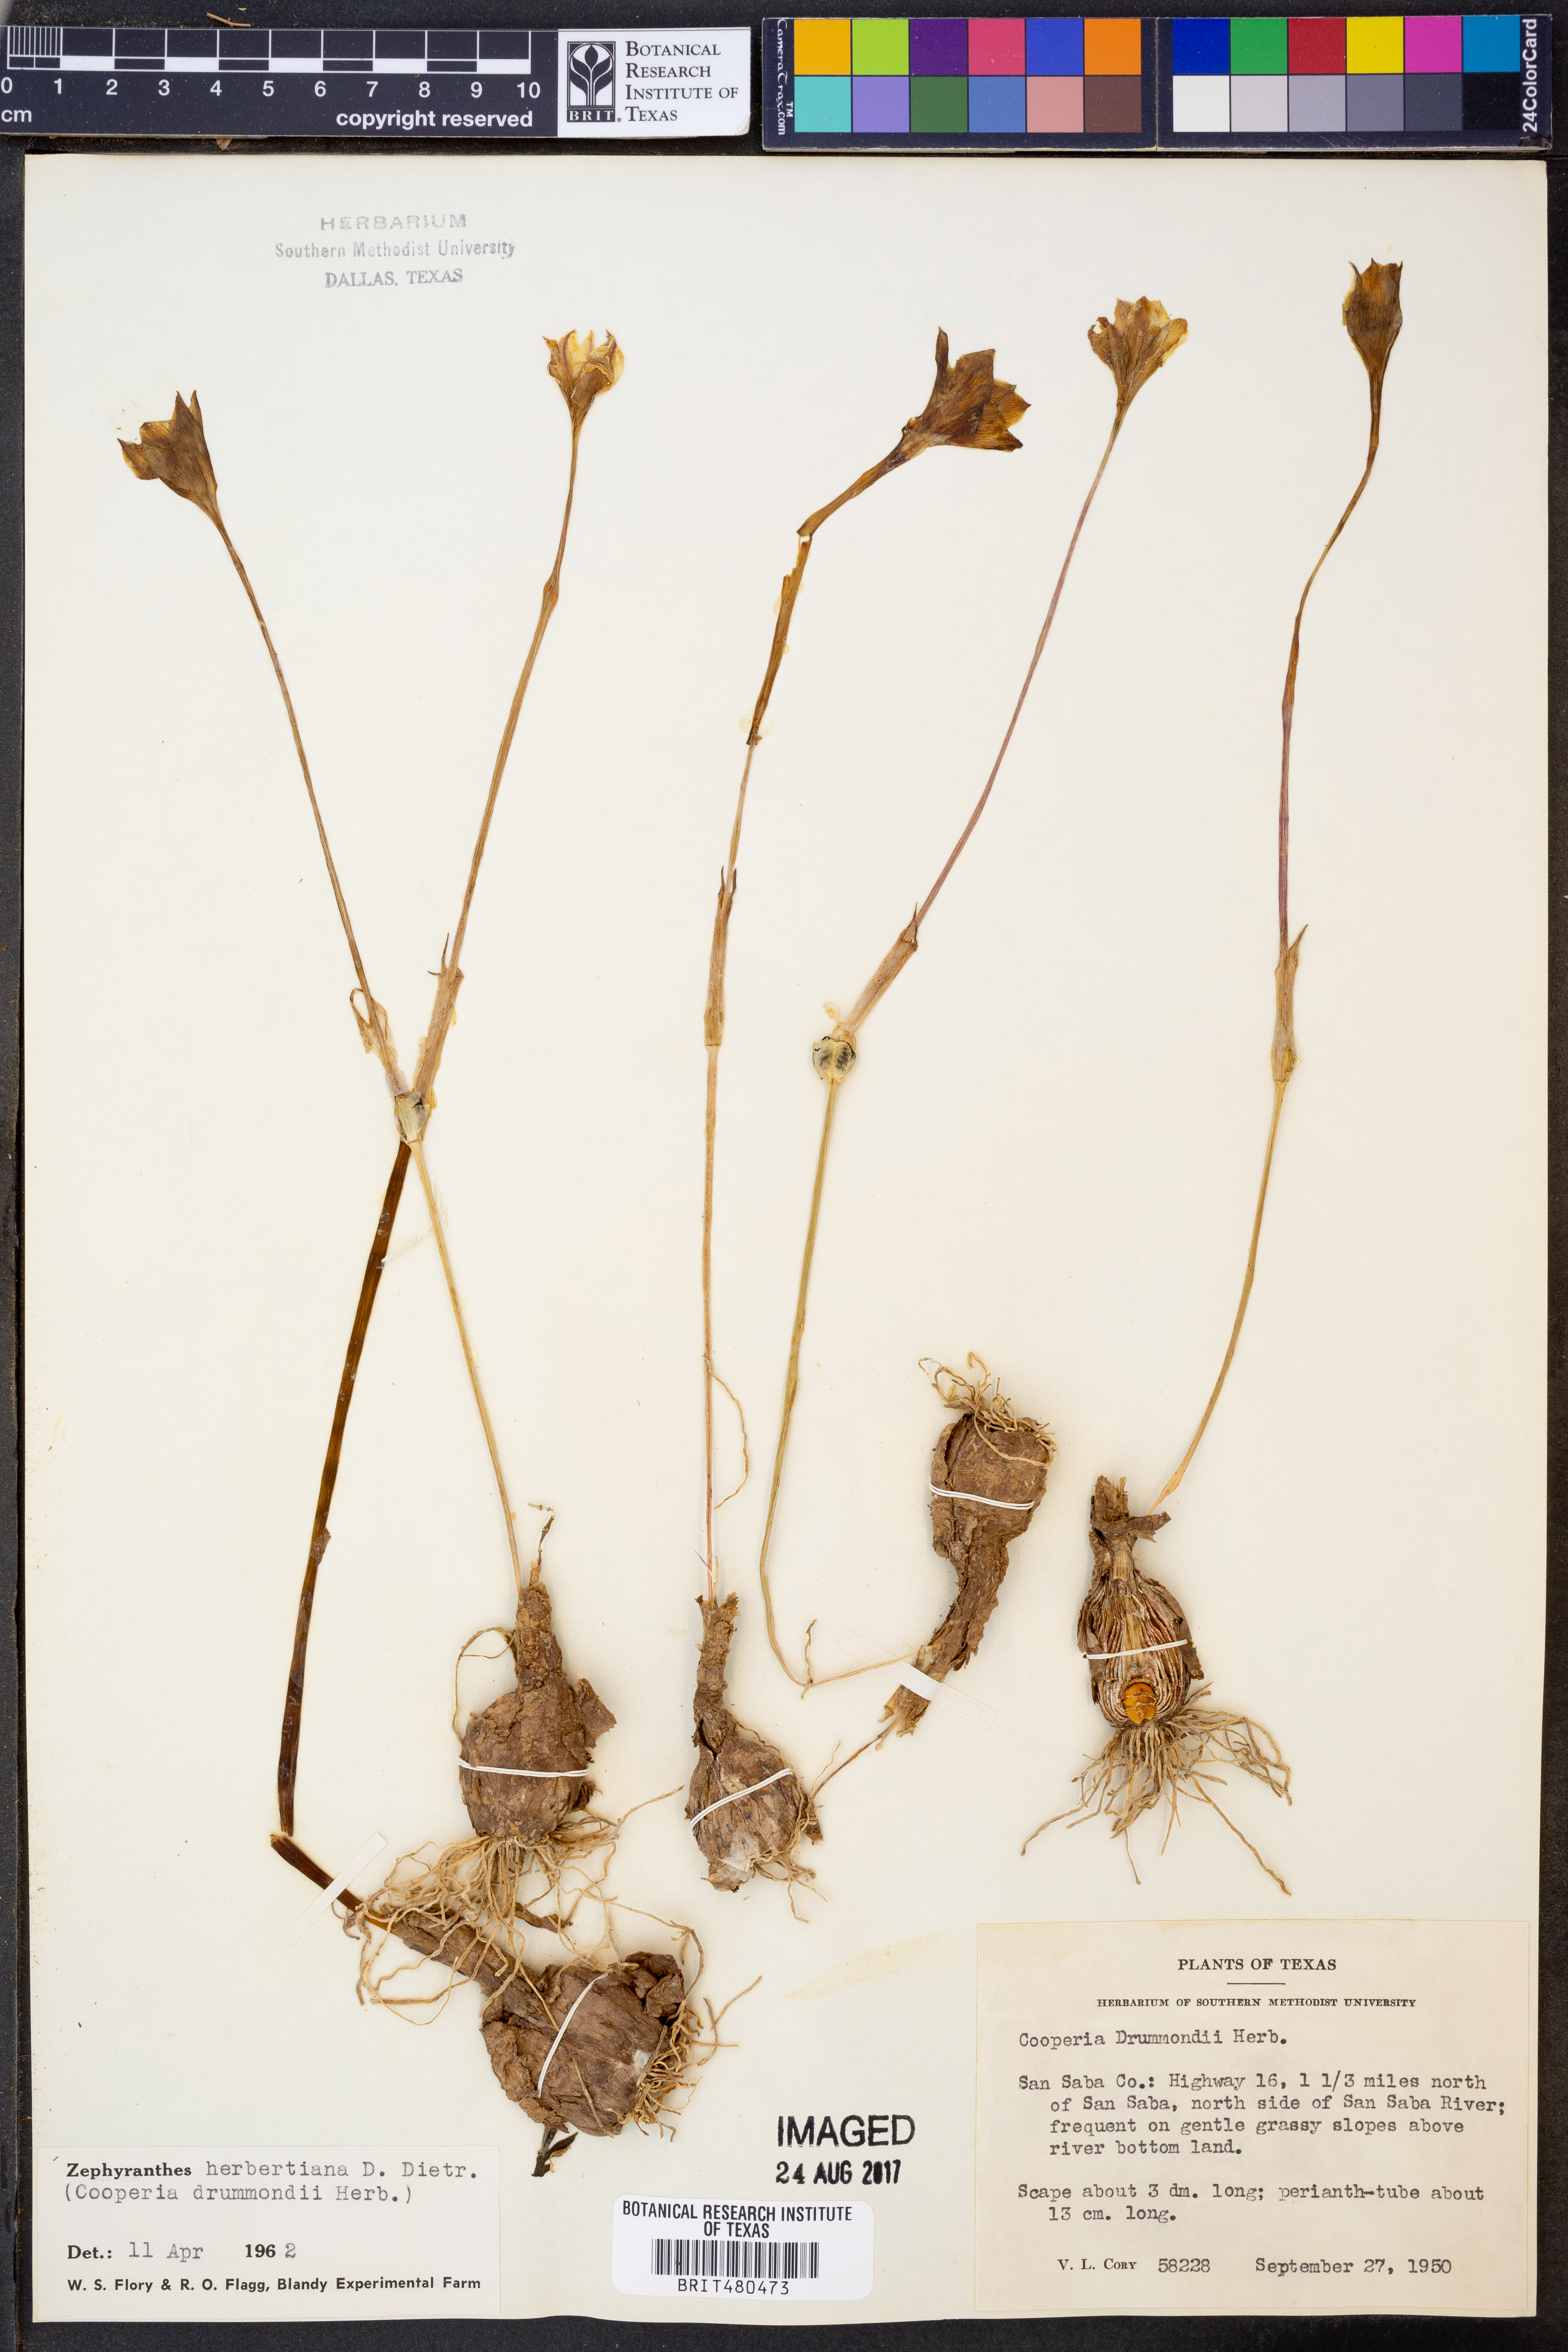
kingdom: Plantae
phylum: Tracheophyta
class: Liliopsida
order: Asparagales
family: Amaryllidaceae
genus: Zephyranthes
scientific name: Zephyranthes chlorosolen
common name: Evening rain-lily
